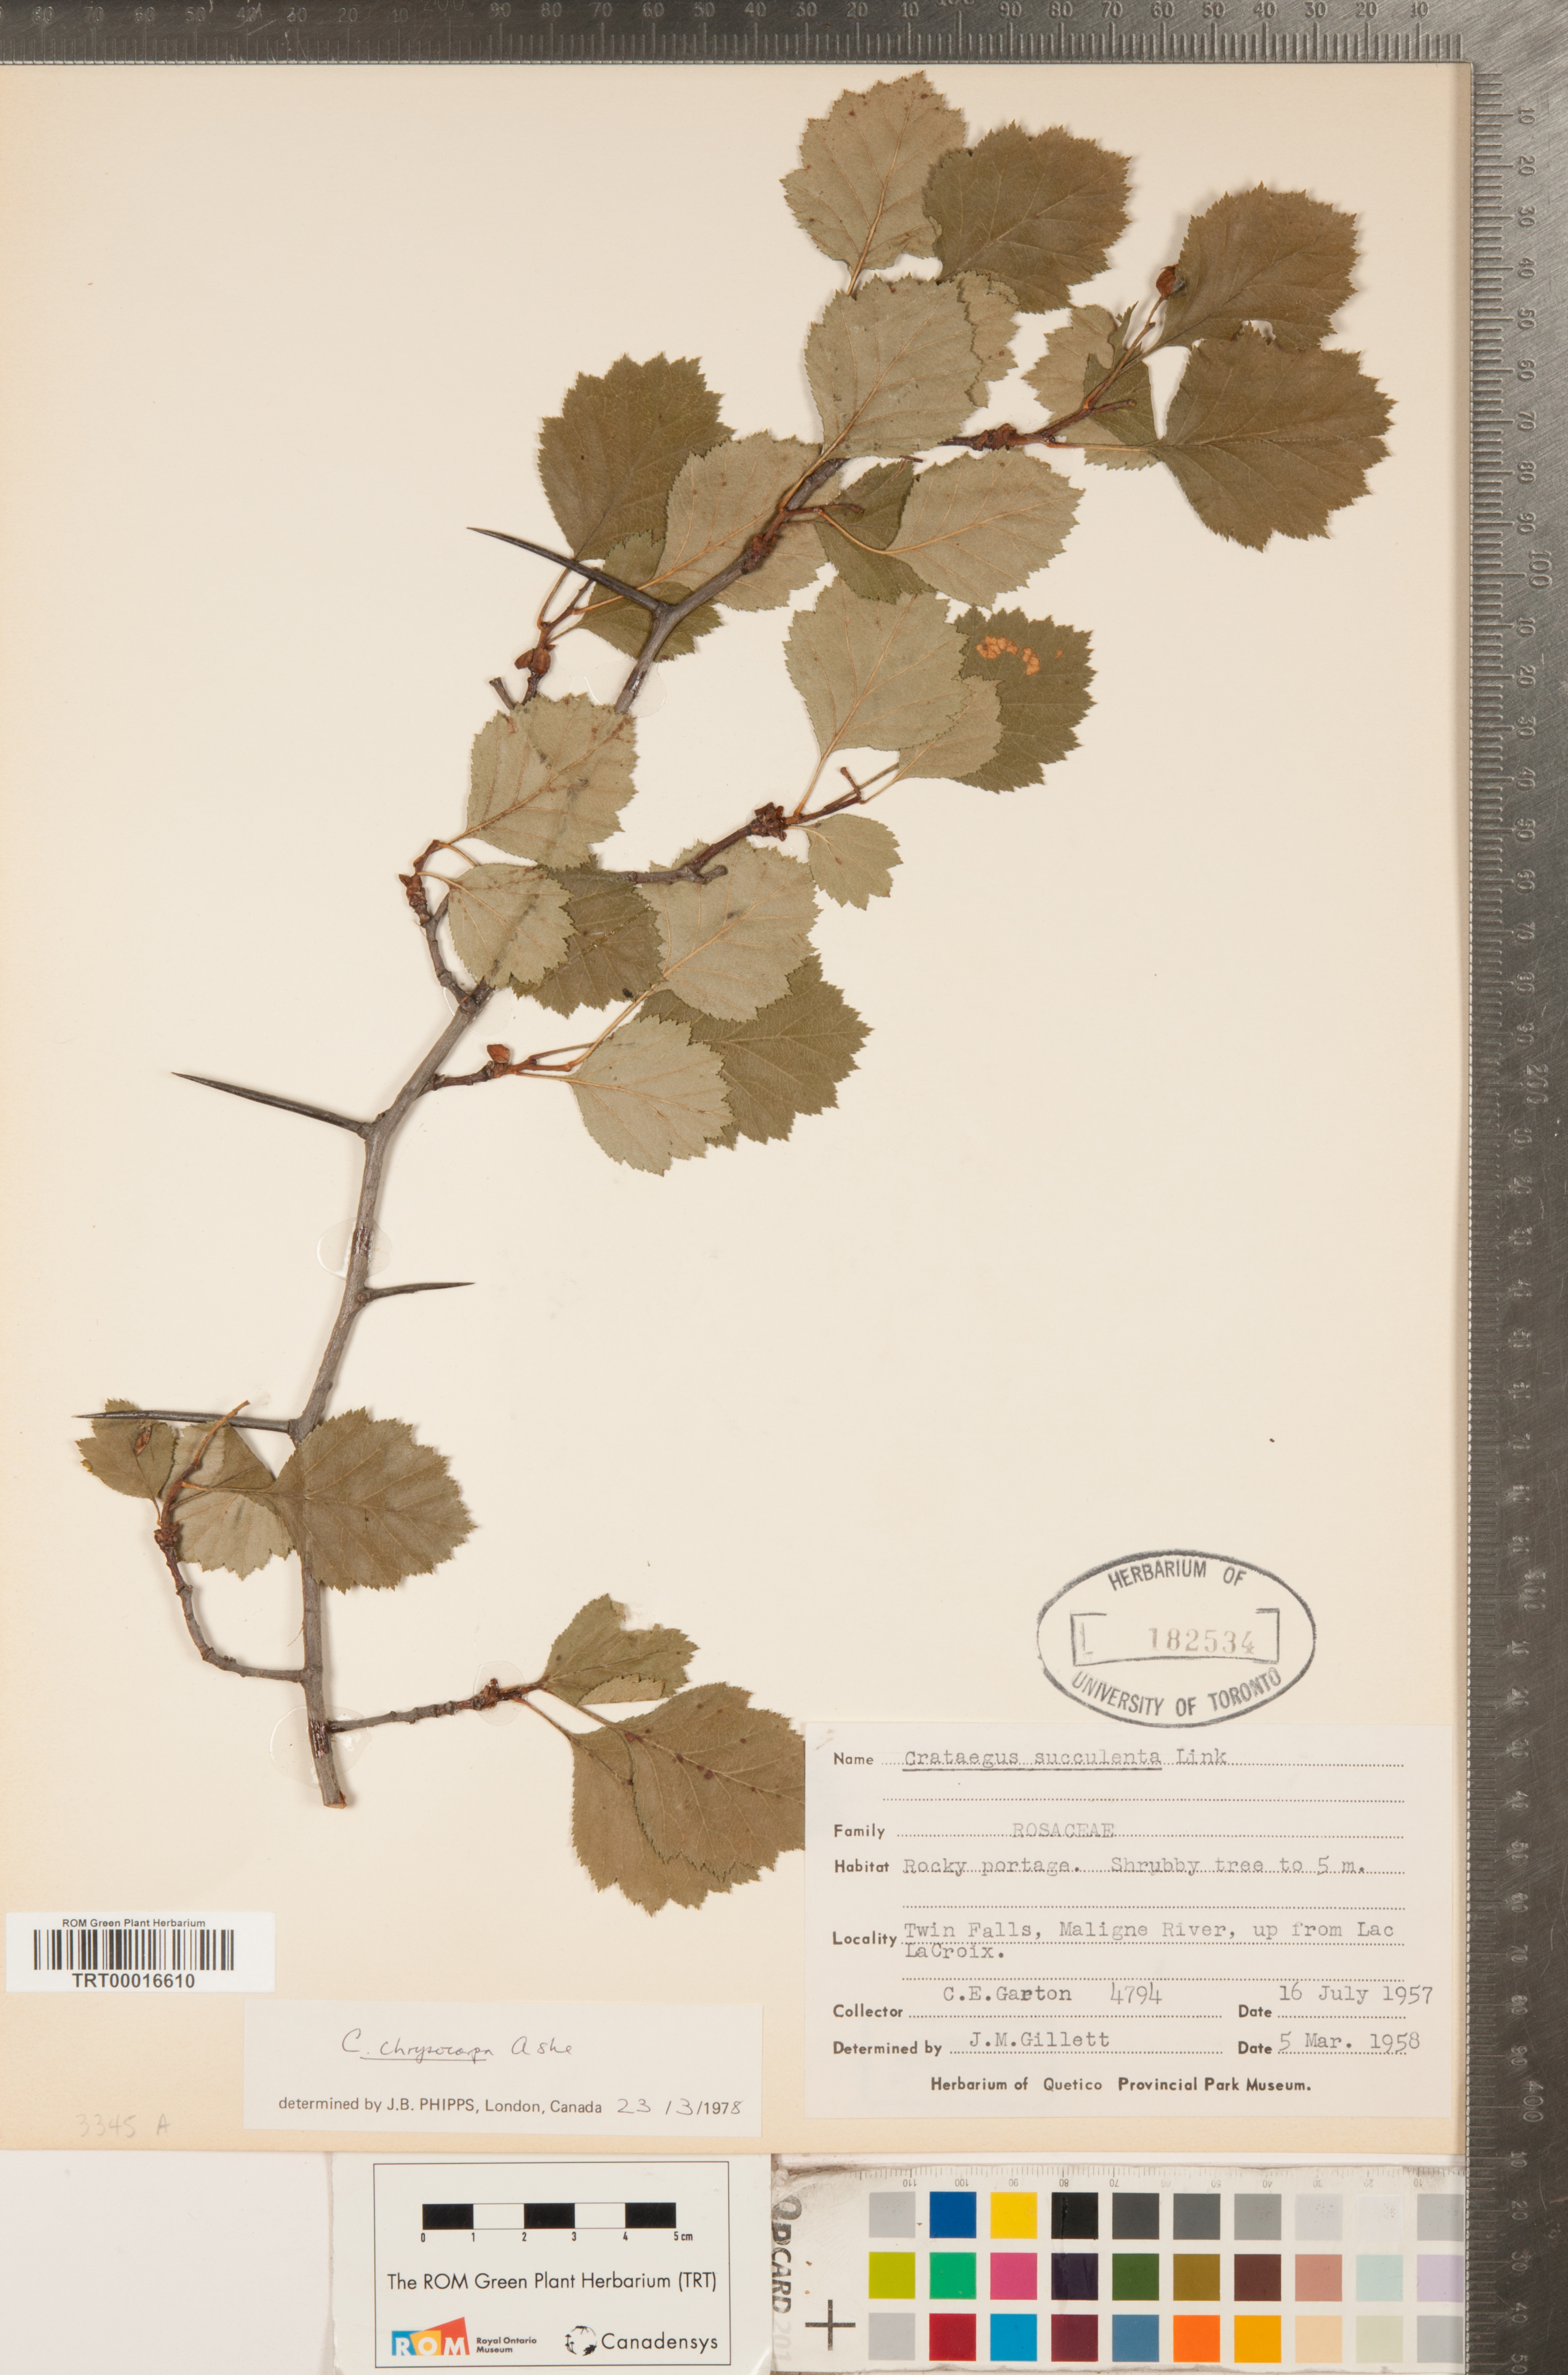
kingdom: Plantae
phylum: Tracheophyta
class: Magnoliopsida
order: Rosales
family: Rosaceae
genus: Crataegus
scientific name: Crataegus chrysocarpa
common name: Fire-berry hawthorn
